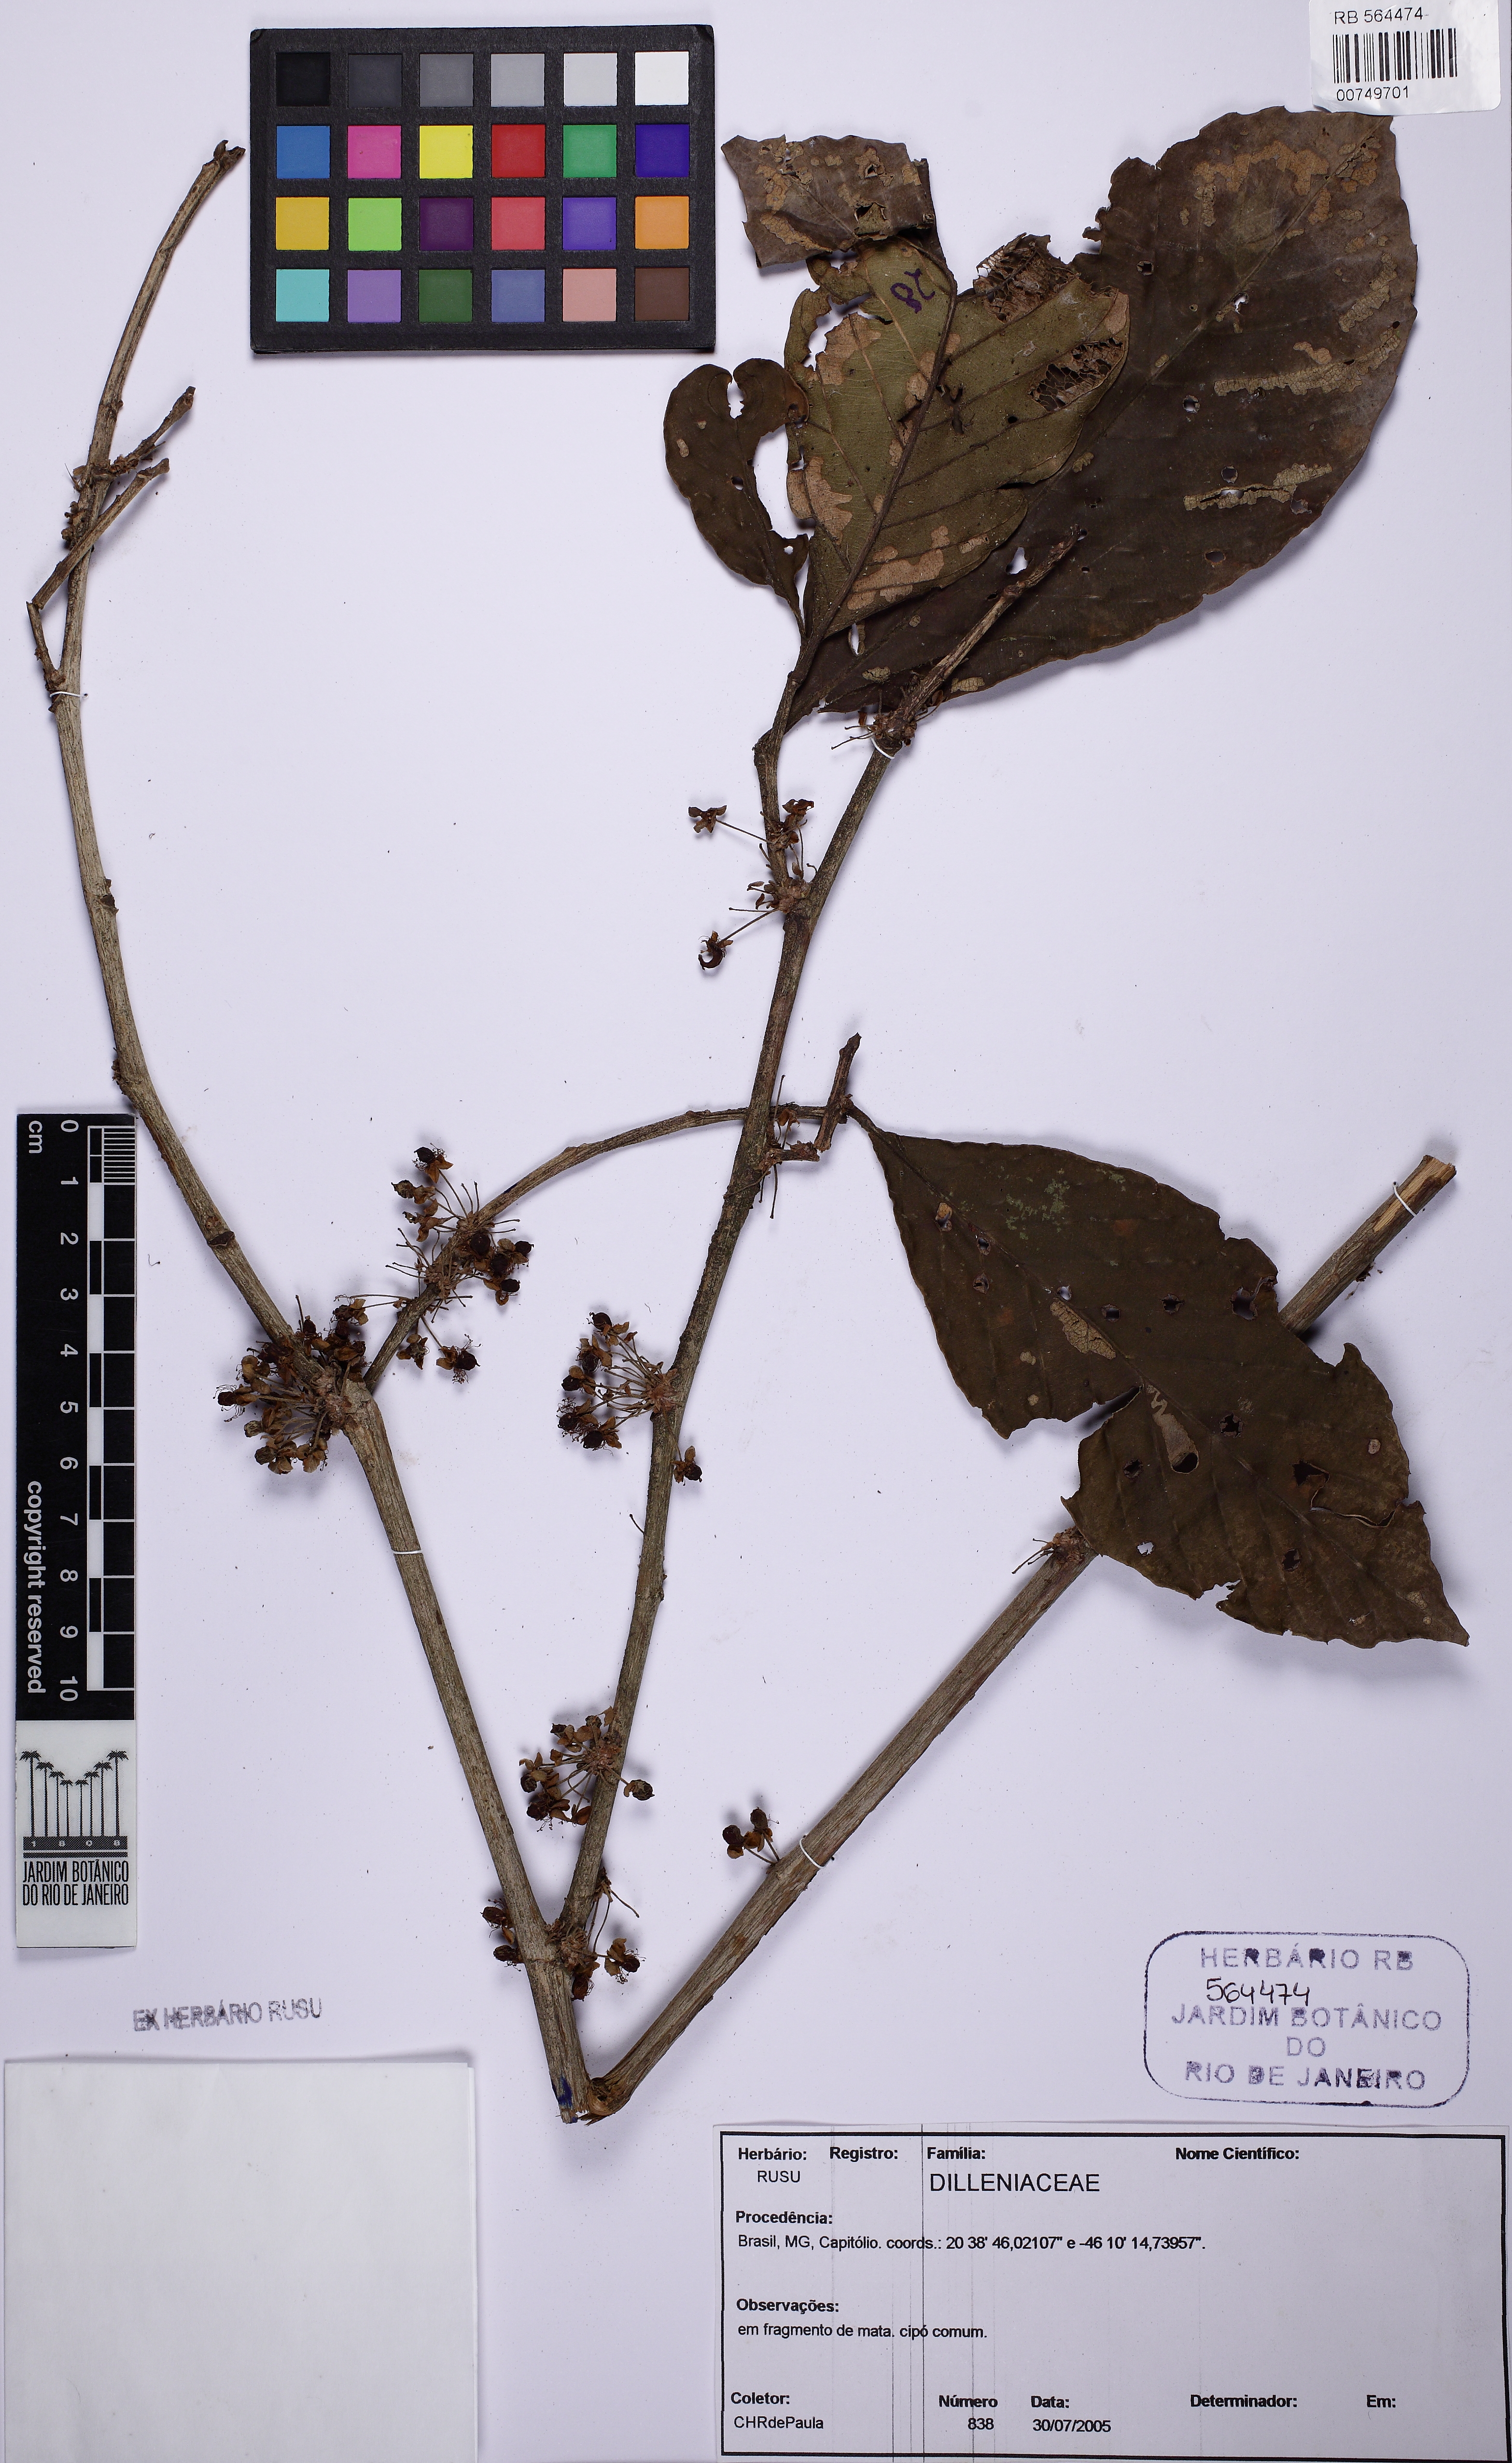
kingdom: Plantae
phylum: Tracheophyta
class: Magnoliopsida
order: Dilleniales
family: Dilleniaceae
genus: Doliocarpus
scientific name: Doliocarpus dentatus
